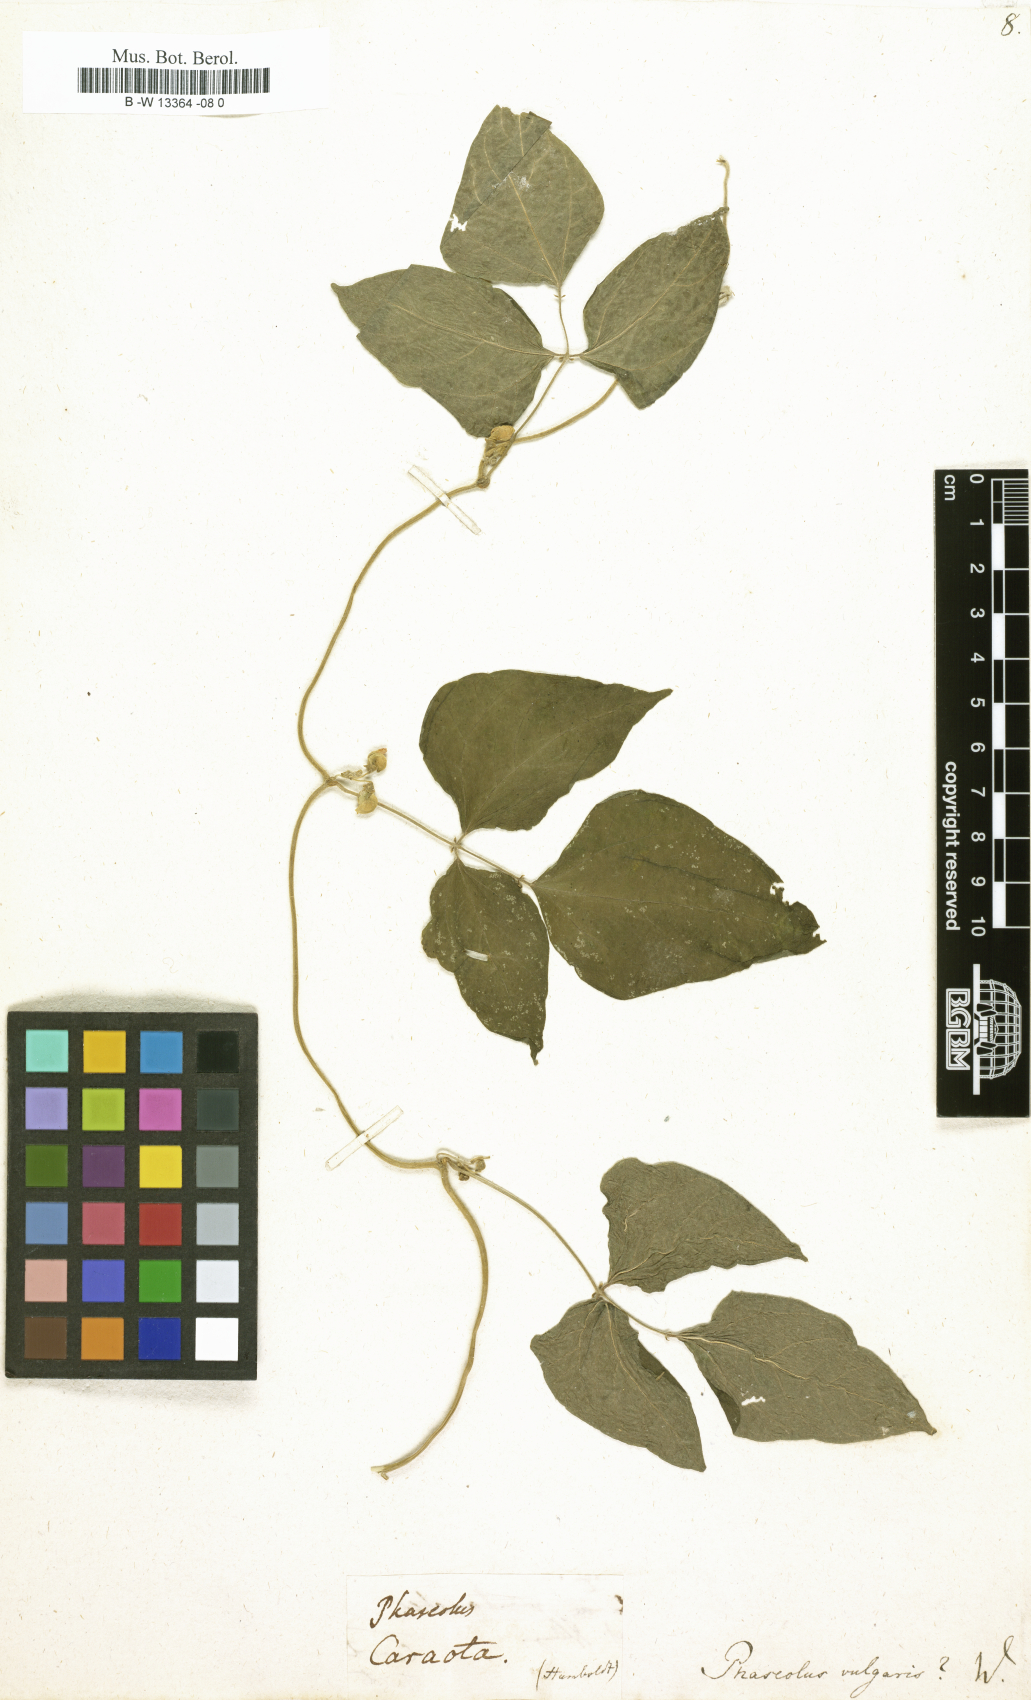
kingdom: Plantae
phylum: Tracheophyta
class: Magnoliopsida
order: Fabales
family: Fabaceae
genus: Phaseolus
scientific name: Phaseolus vulgaris
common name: Bean
